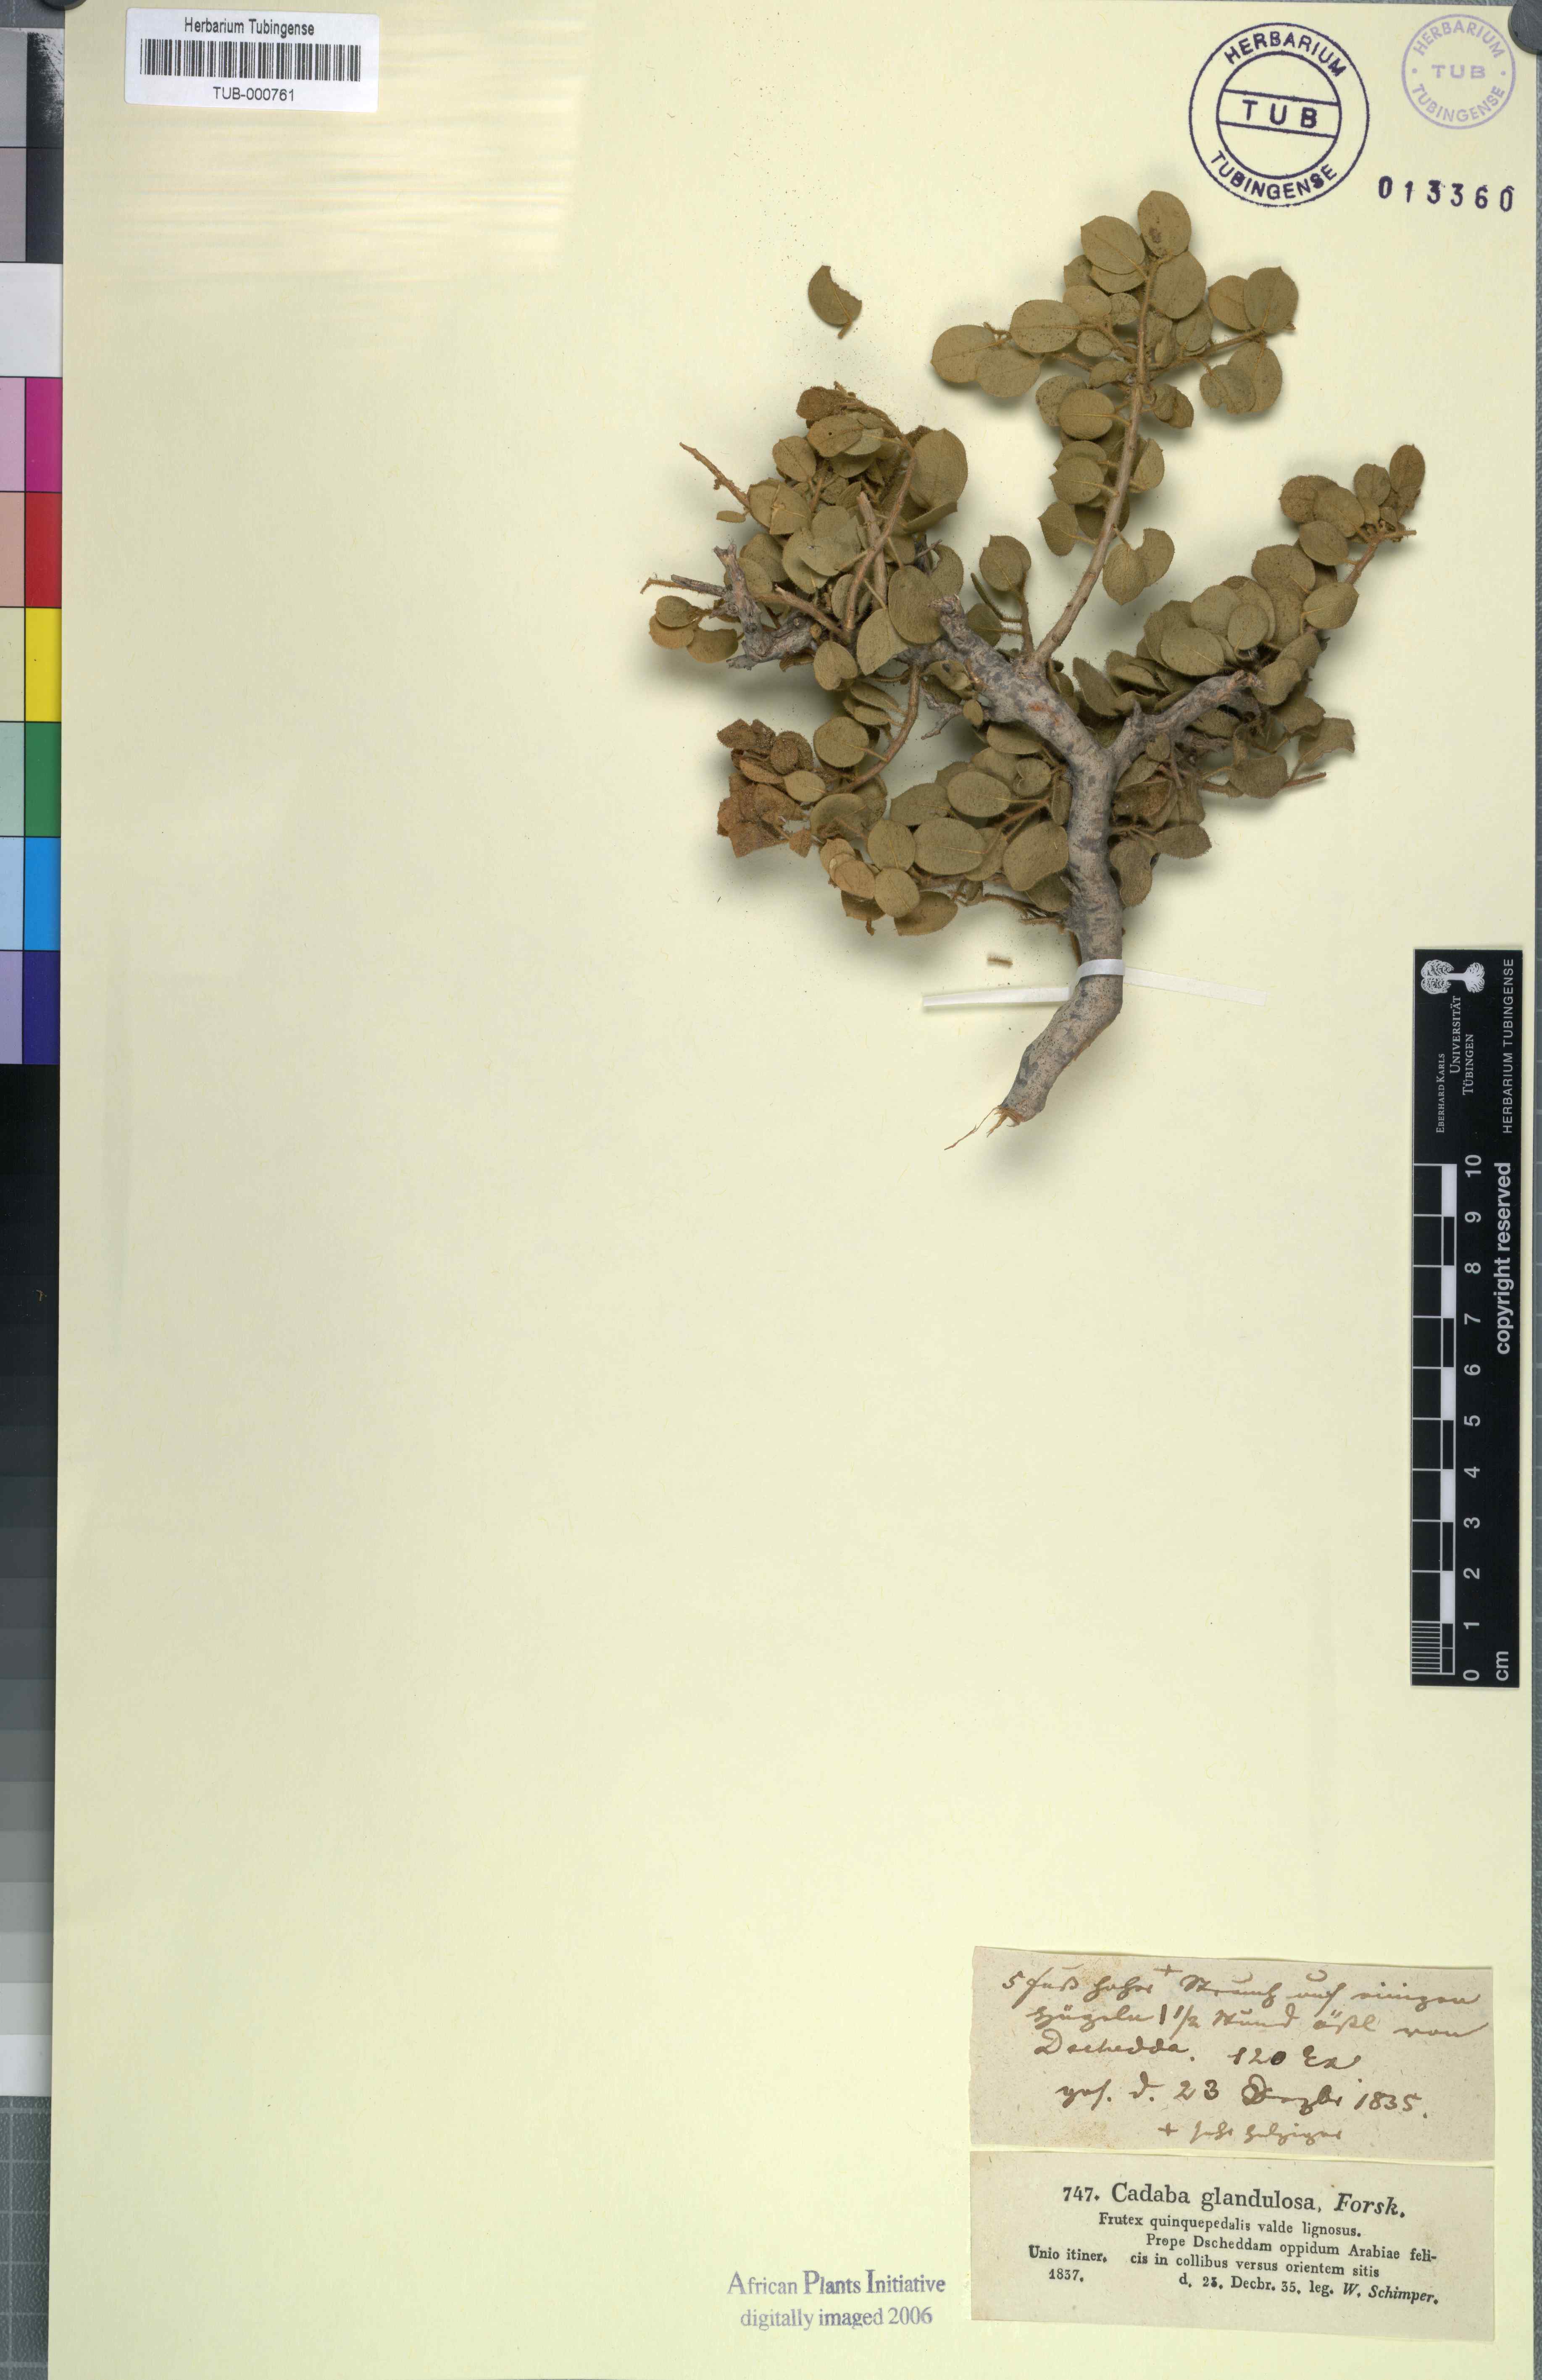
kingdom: Plantae
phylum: Tracheophyta
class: Magnoliopsida
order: Brassicales
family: Capparaceae
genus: Cadaba
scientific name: Cadaba glandulosa
